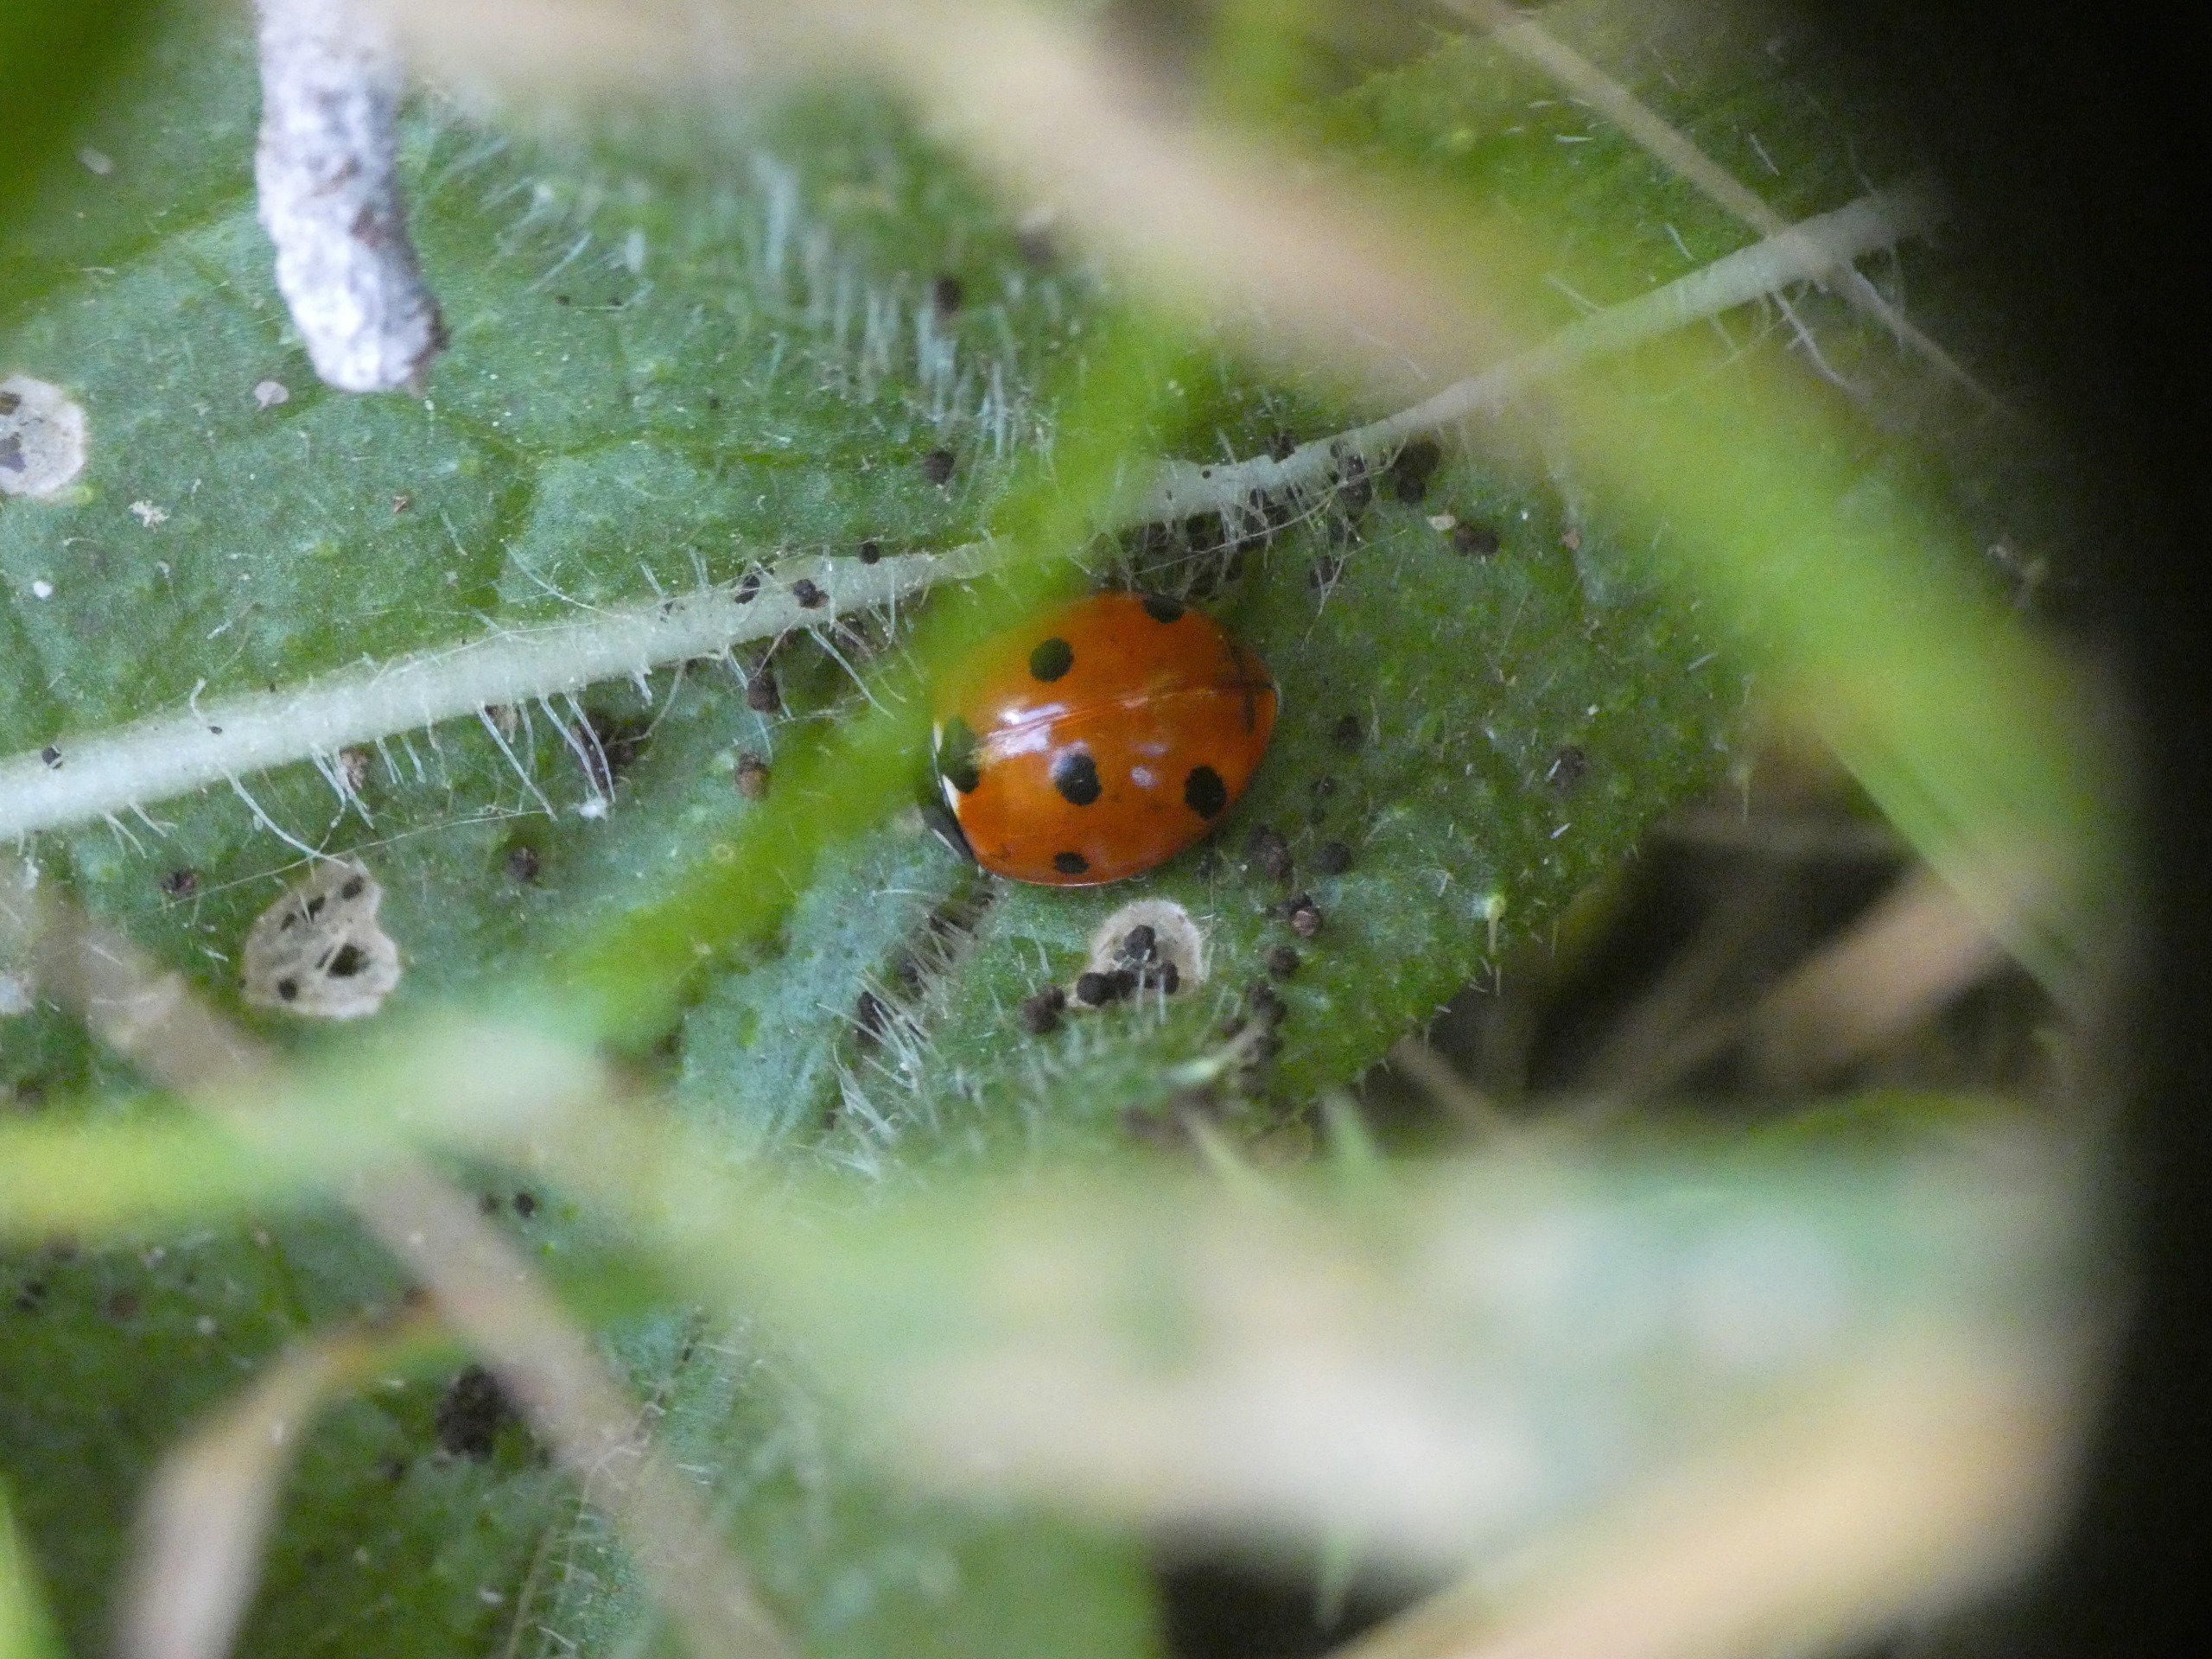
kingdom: Animalia
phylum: Arthropoda
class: Insecta
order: Coleoptera
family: Coccinellidae
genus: Coccinella
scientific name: Coccinella septempunctata
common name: Syvplettet mariehøne
